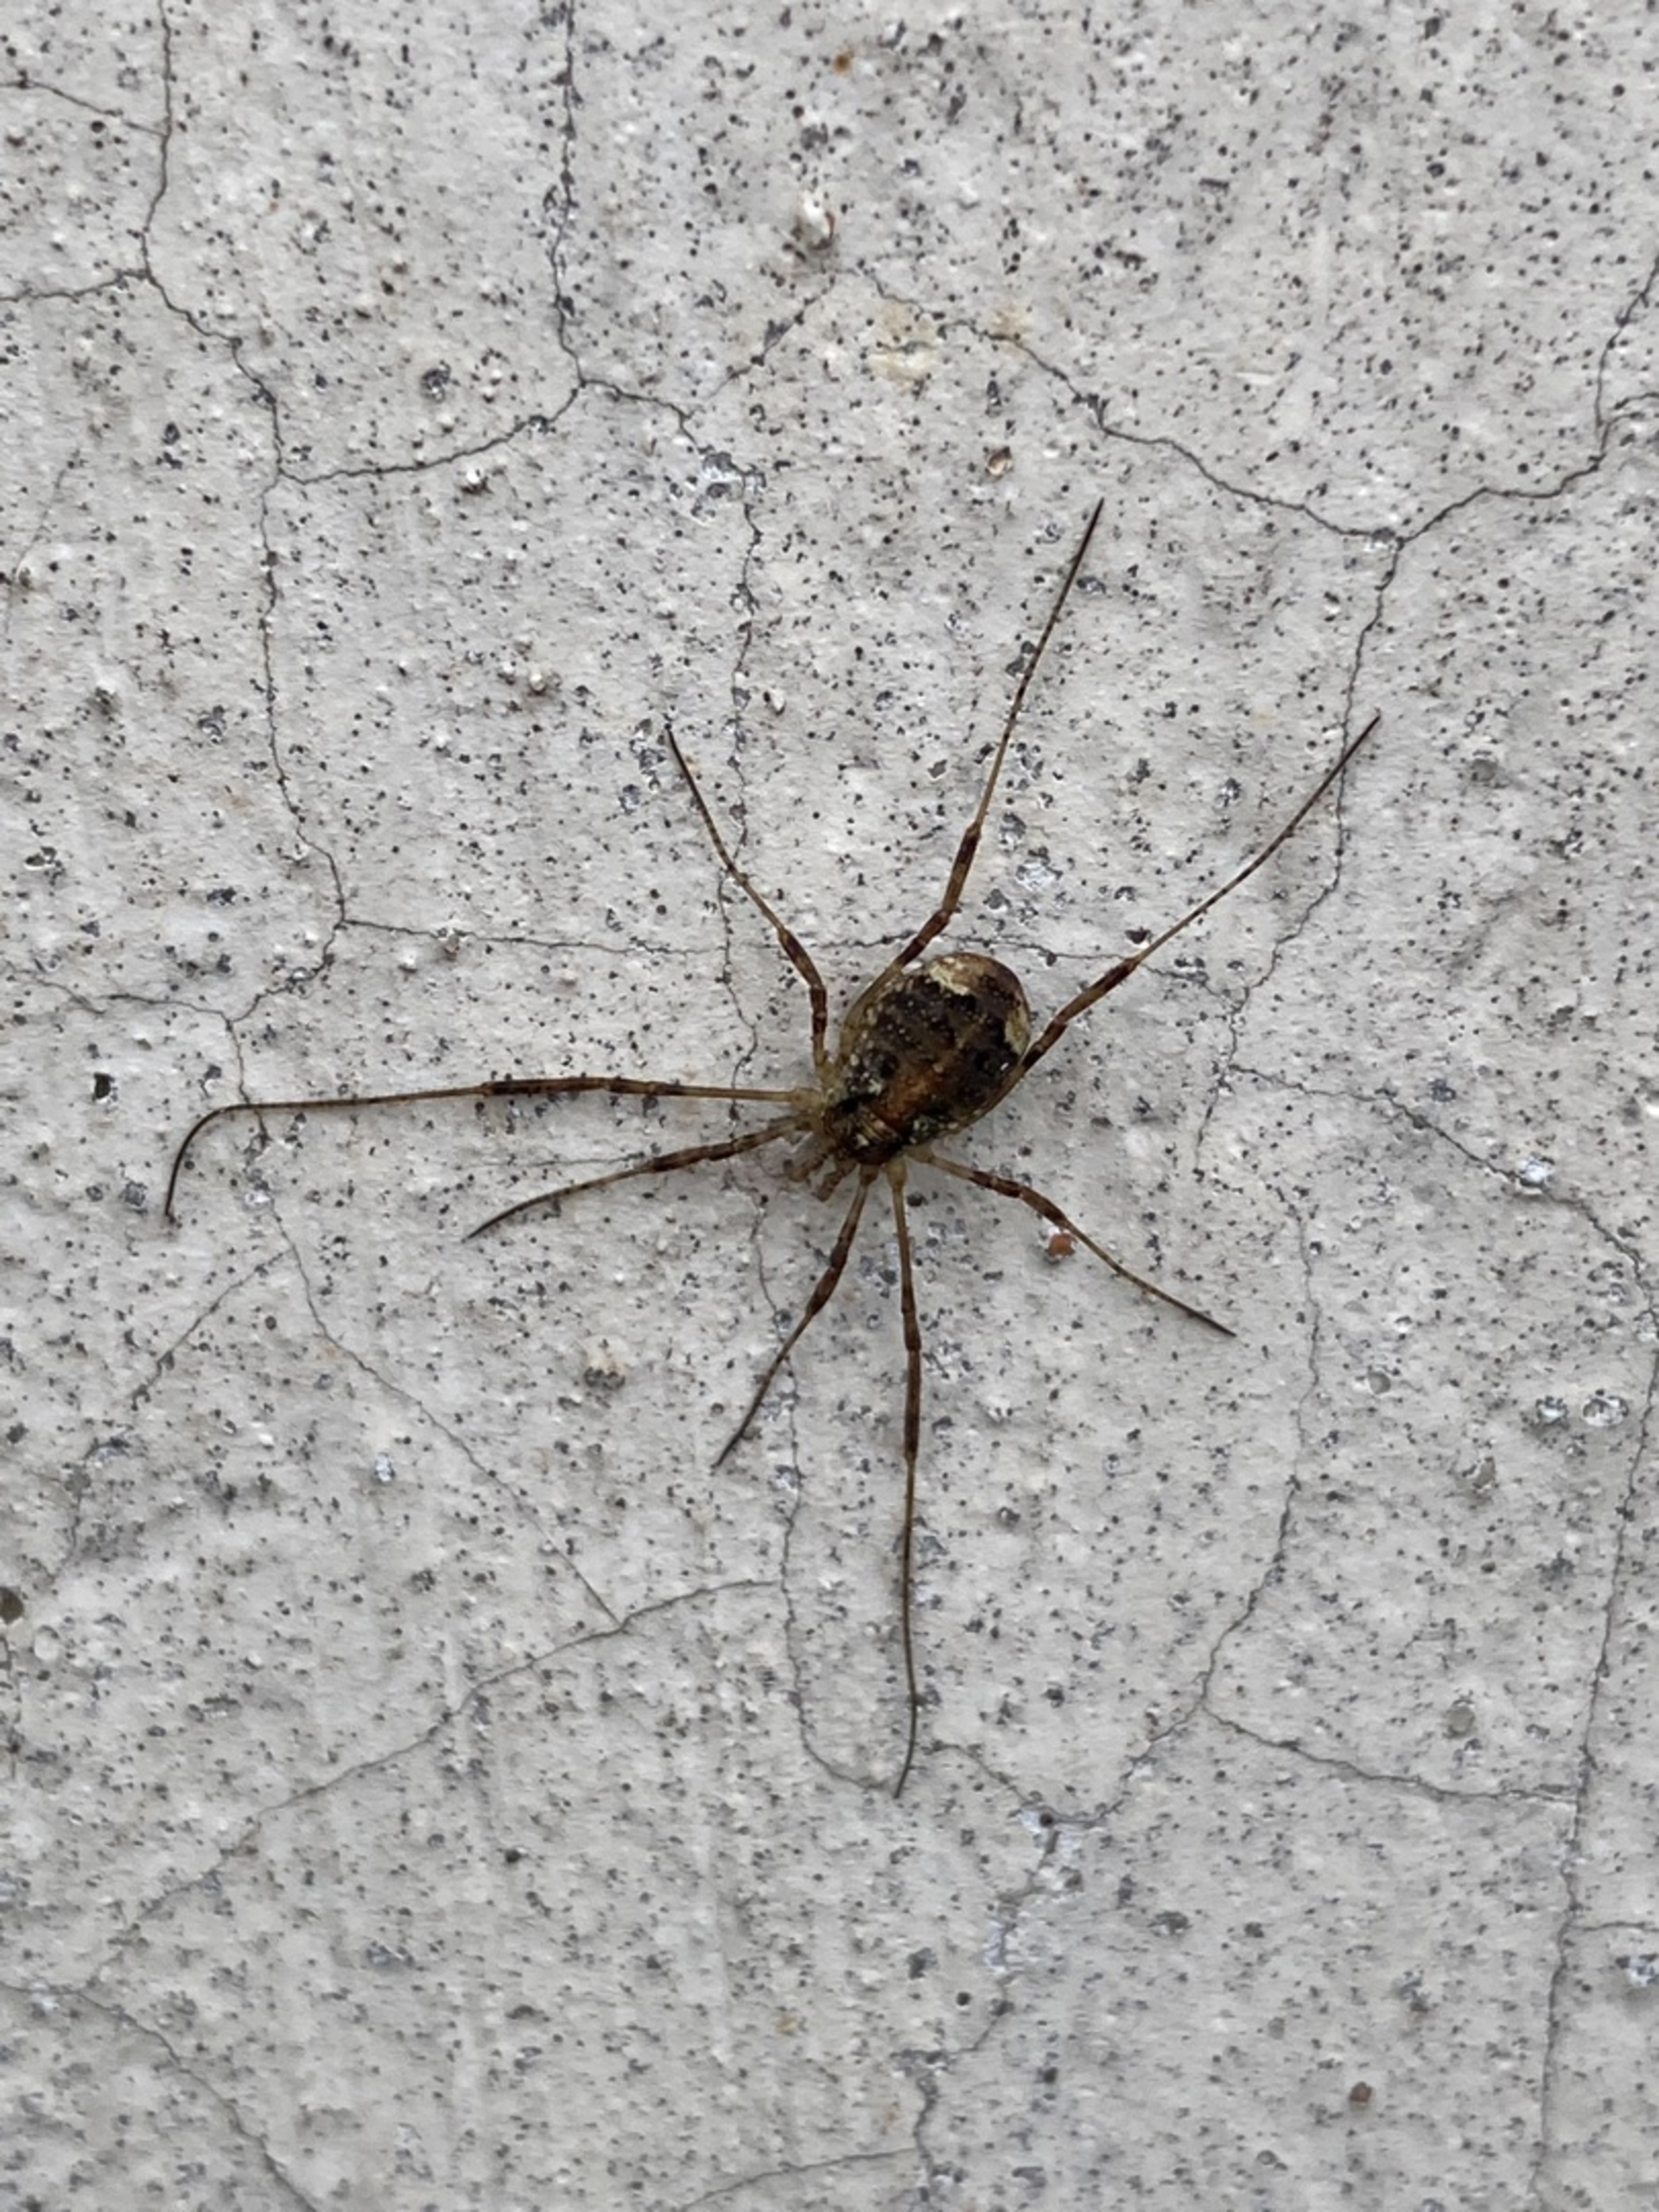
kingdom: Animalia
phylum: Arthropoda
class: Arachnida
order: Opiliones
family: Phalangiidae
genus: Paroligolophus
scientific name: Paroligolophus agrestis
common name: Hedemejer
